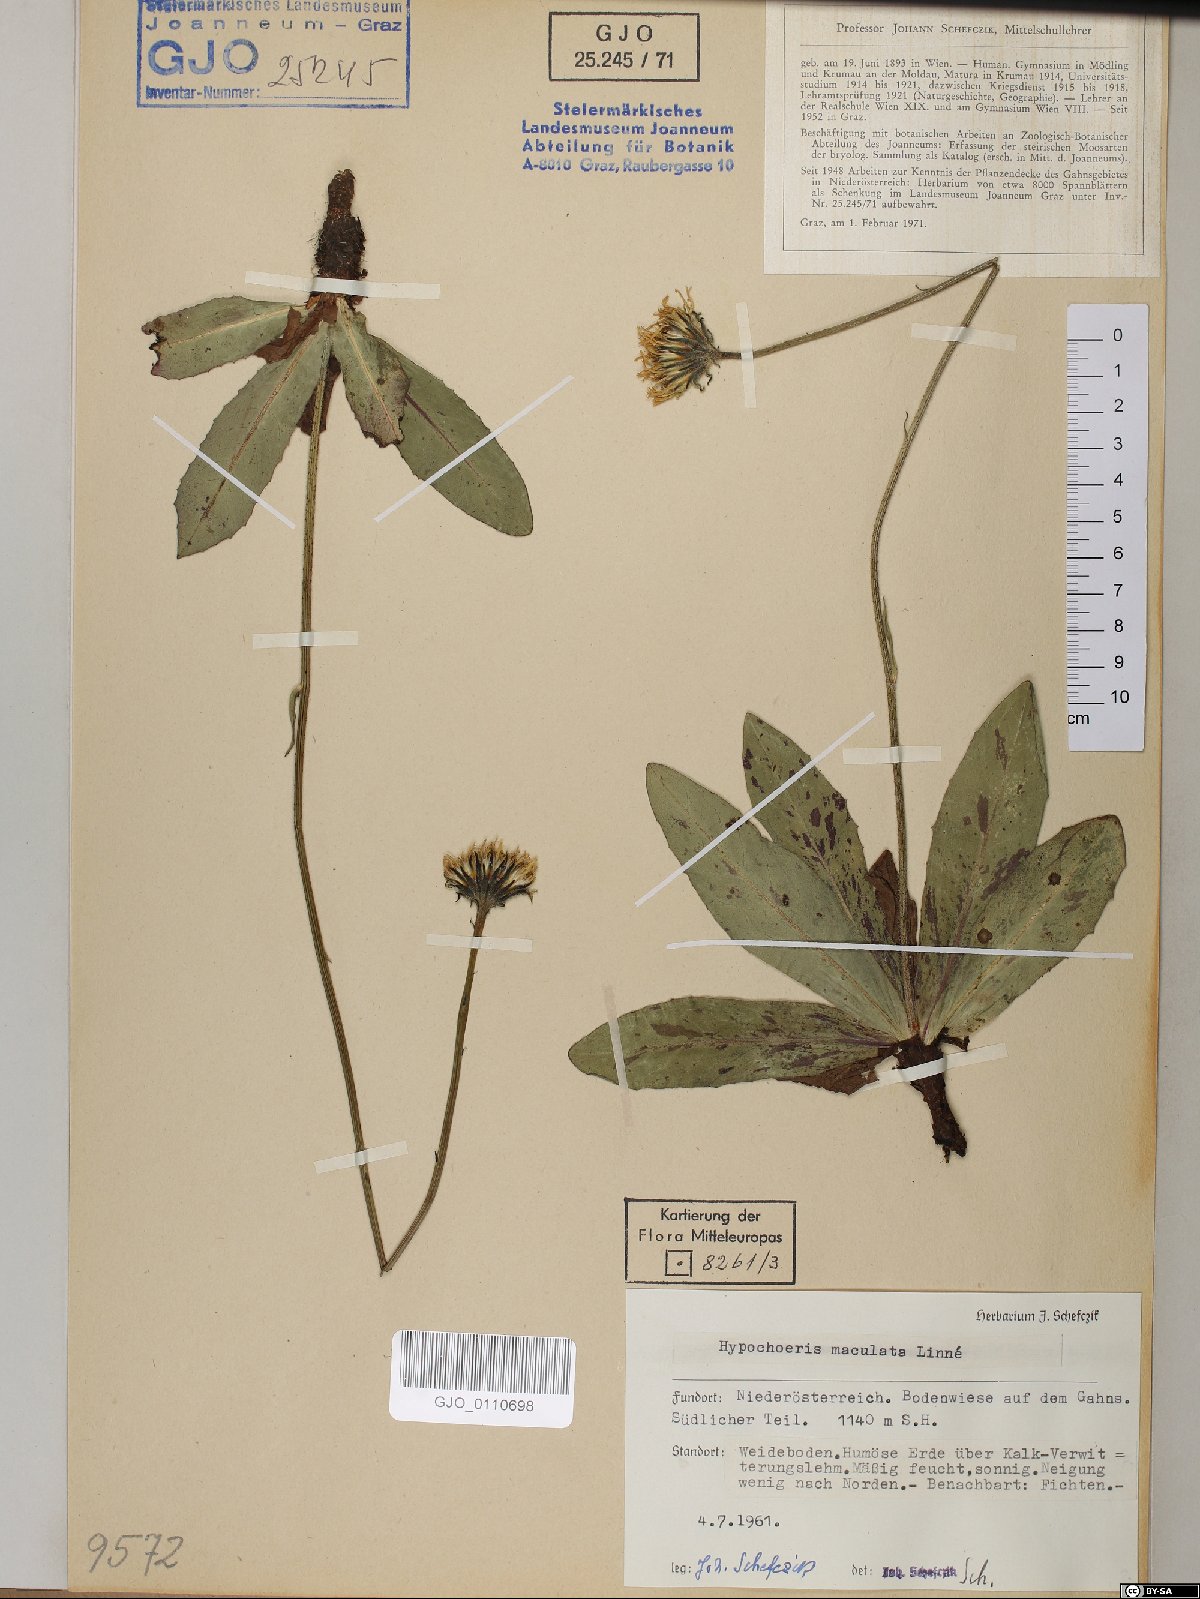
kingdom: Plantae
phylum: Tracheophyta
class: Magnoliopsida
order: Asterales
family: Asteraceae
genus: Trommsdorffia
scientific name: Trommsdorffia maculata
